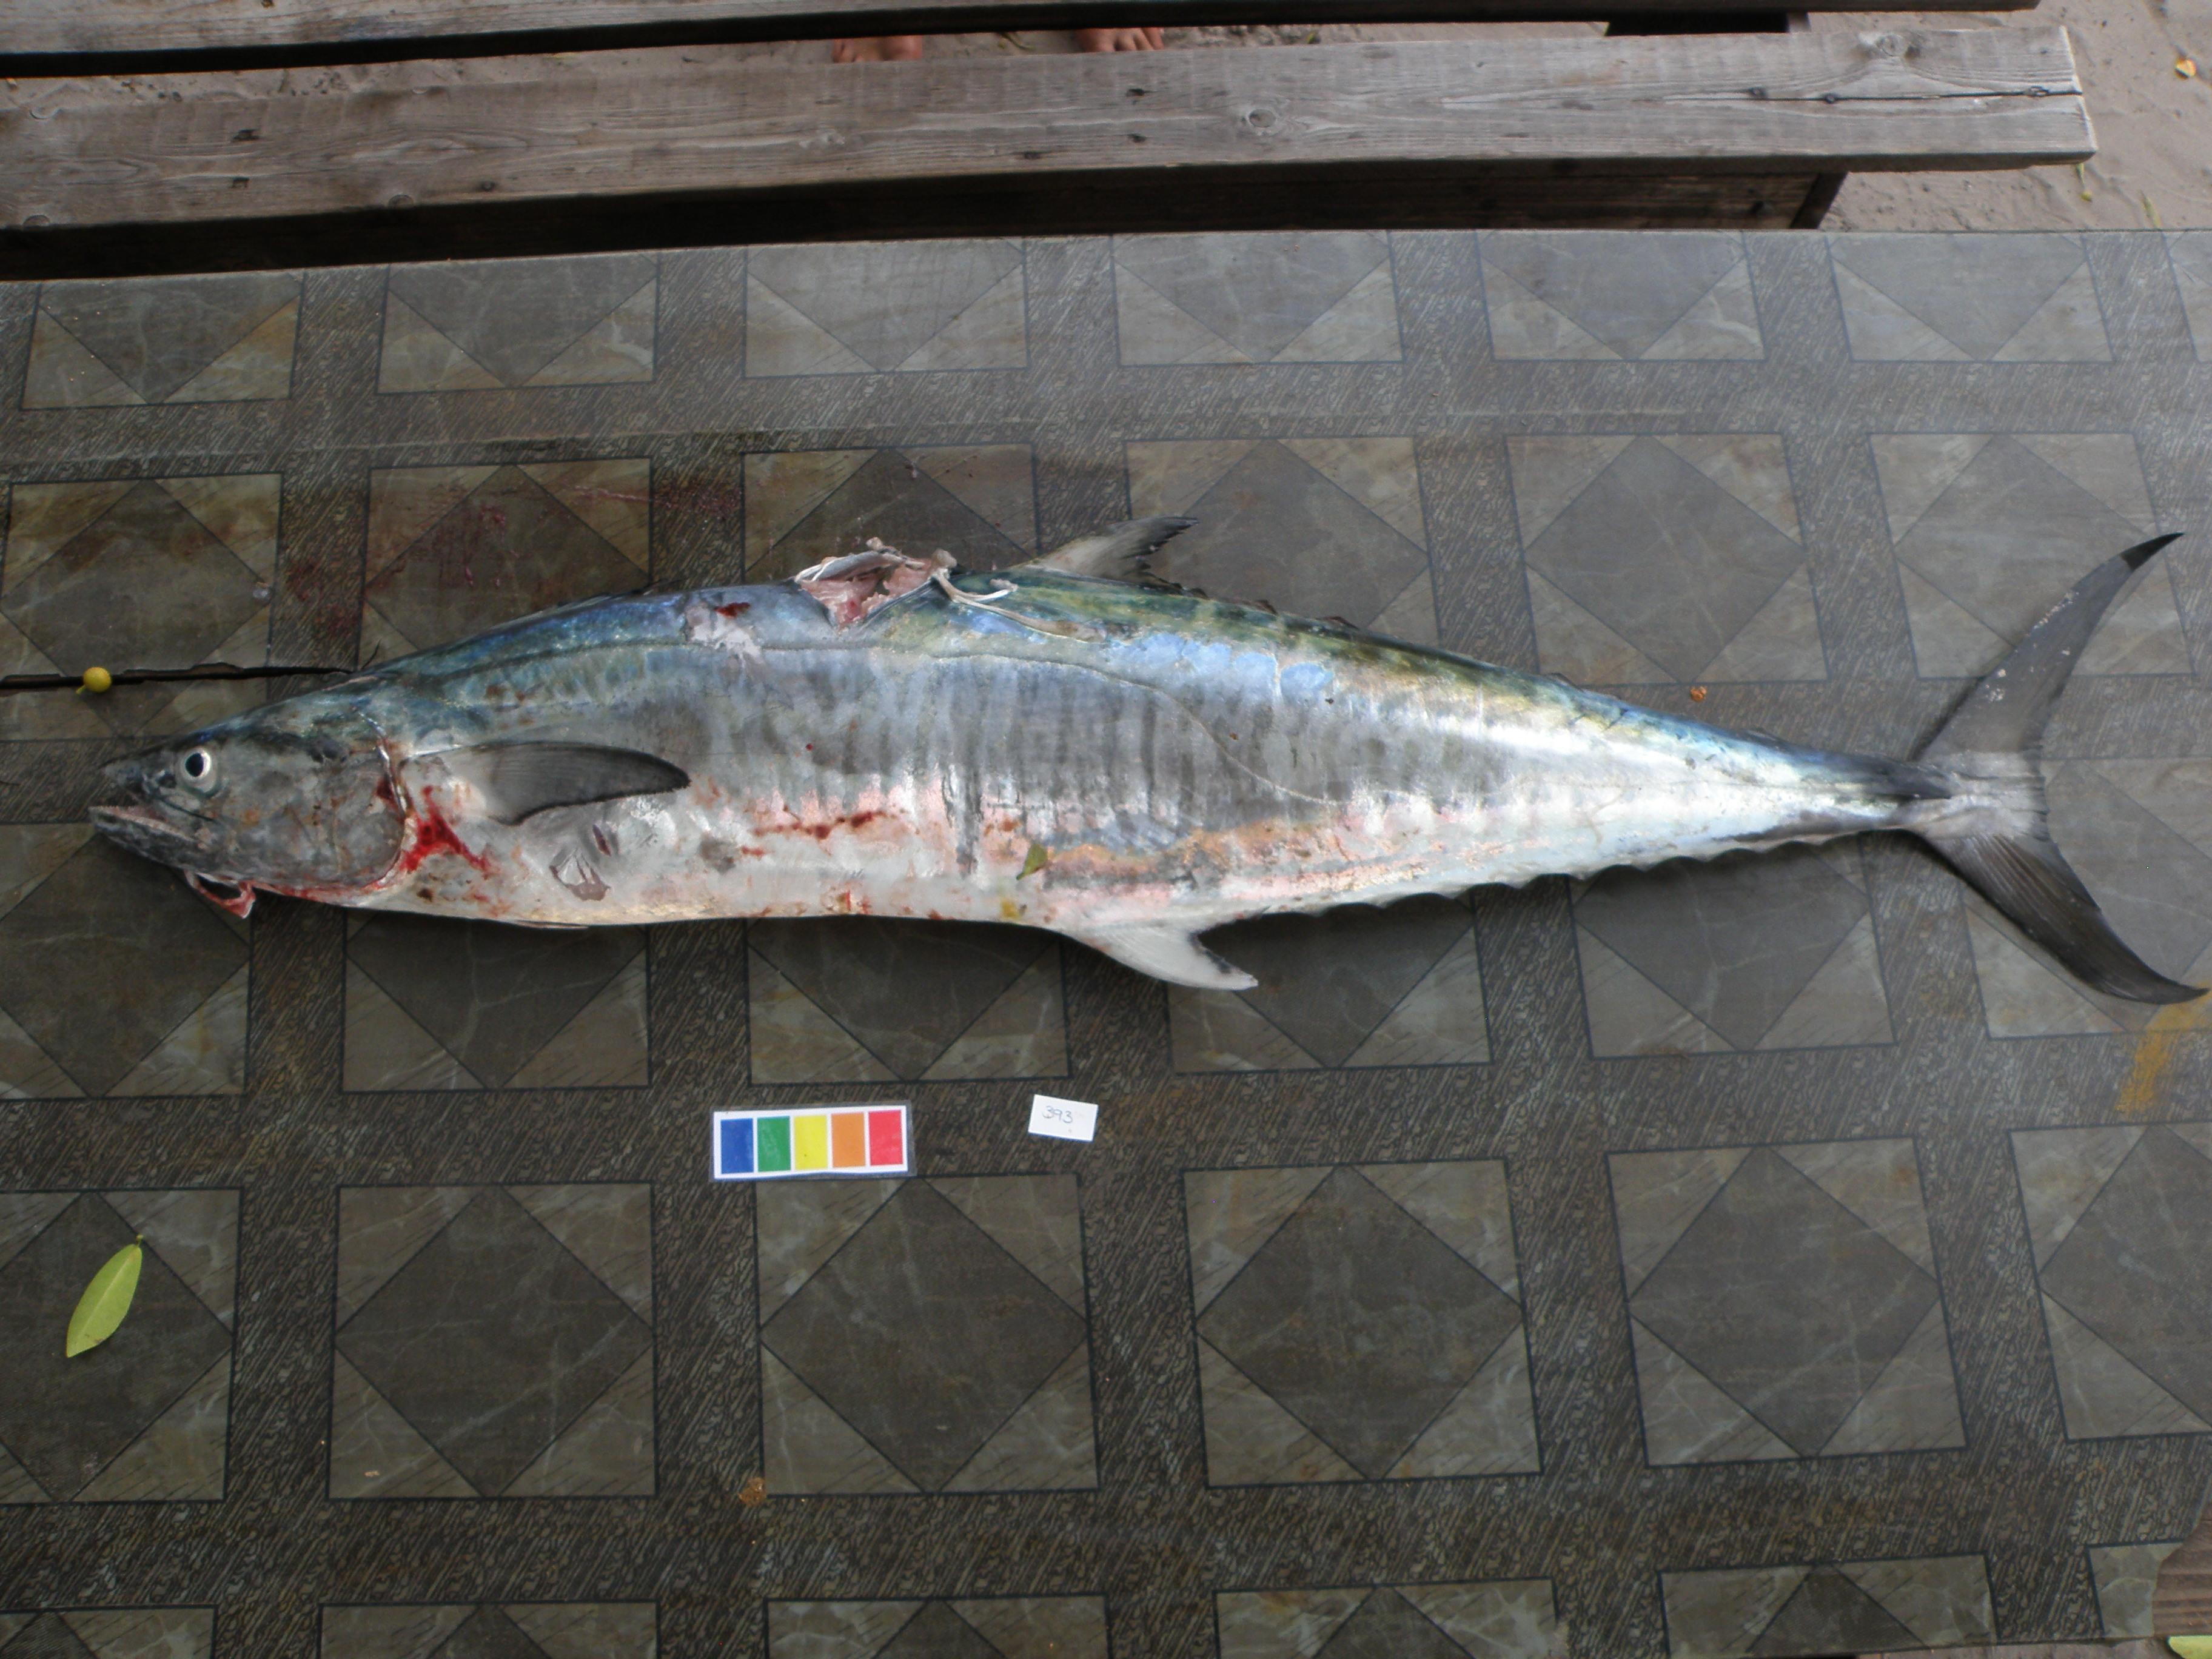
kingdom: Animalia
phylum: Chordata
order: Perciformes
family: Scombridae
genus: Scomberomorus
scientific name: Scomberomorus commerson
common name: Narrow-barred spanish mackerel
